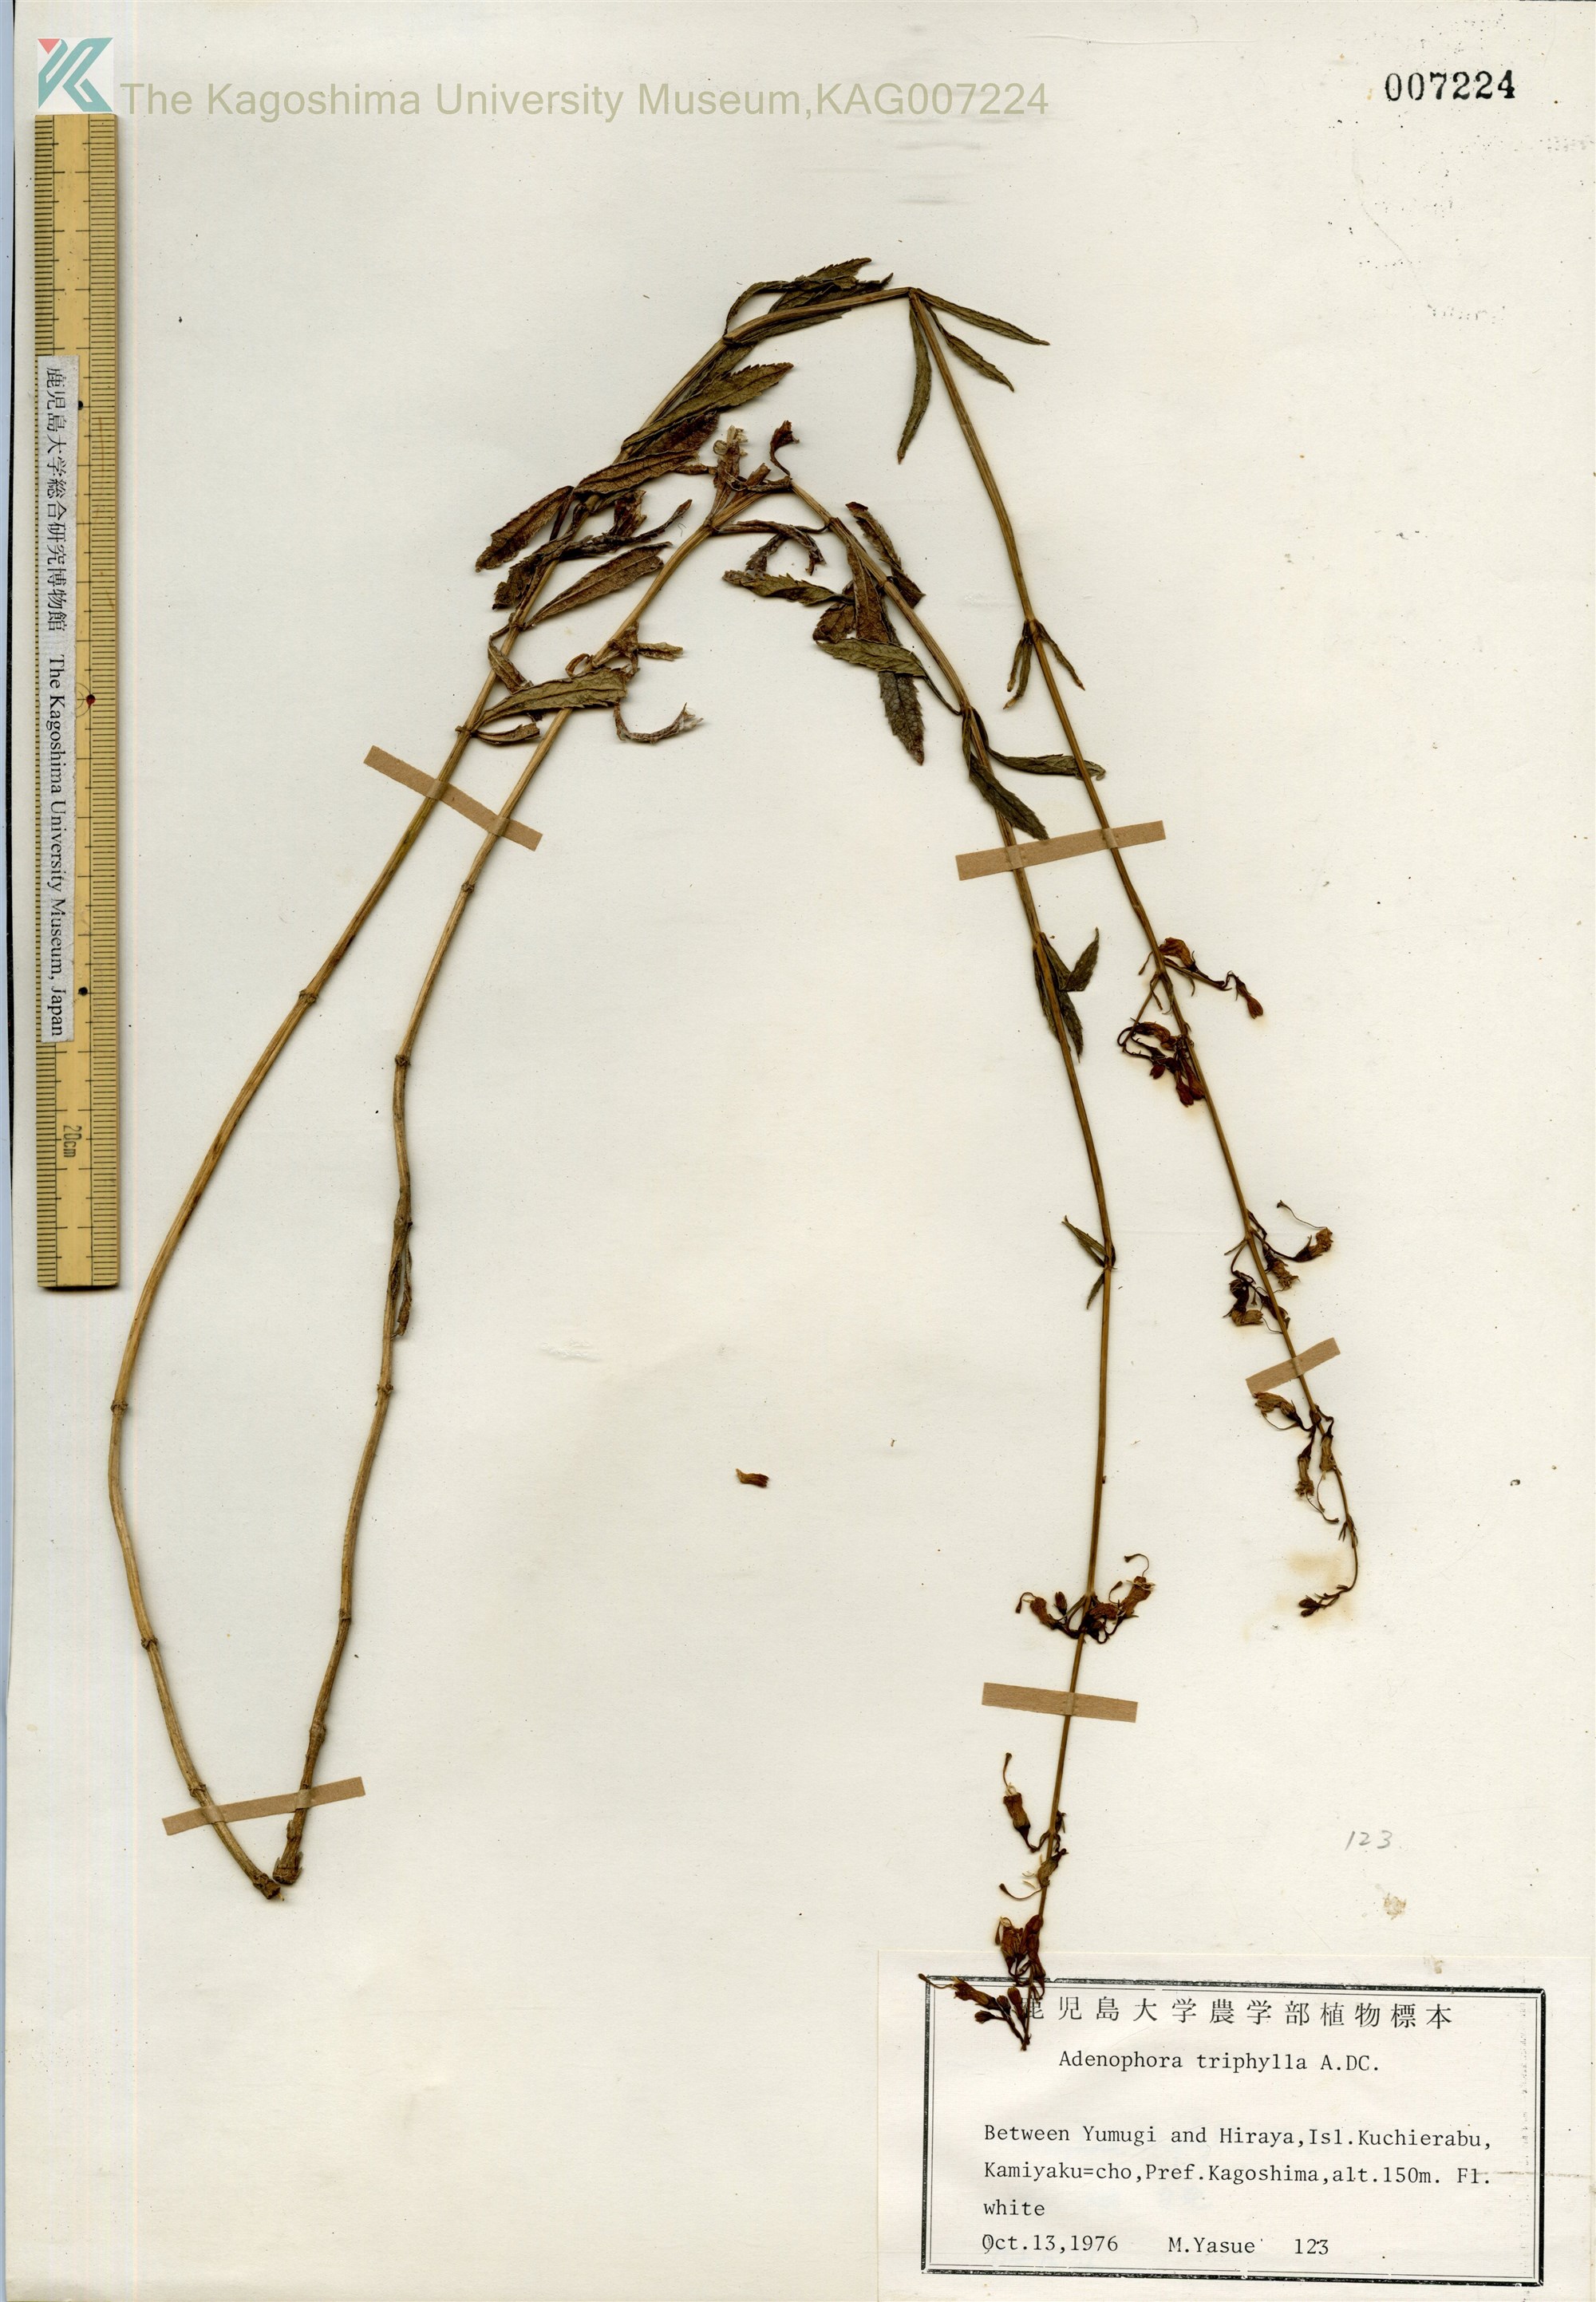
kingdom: Plantae
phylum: Tracheophyta
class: Magnoliopsida
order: Asterales
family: Campanulaceae
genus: Adenophora
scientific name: Adenophora triphylla
